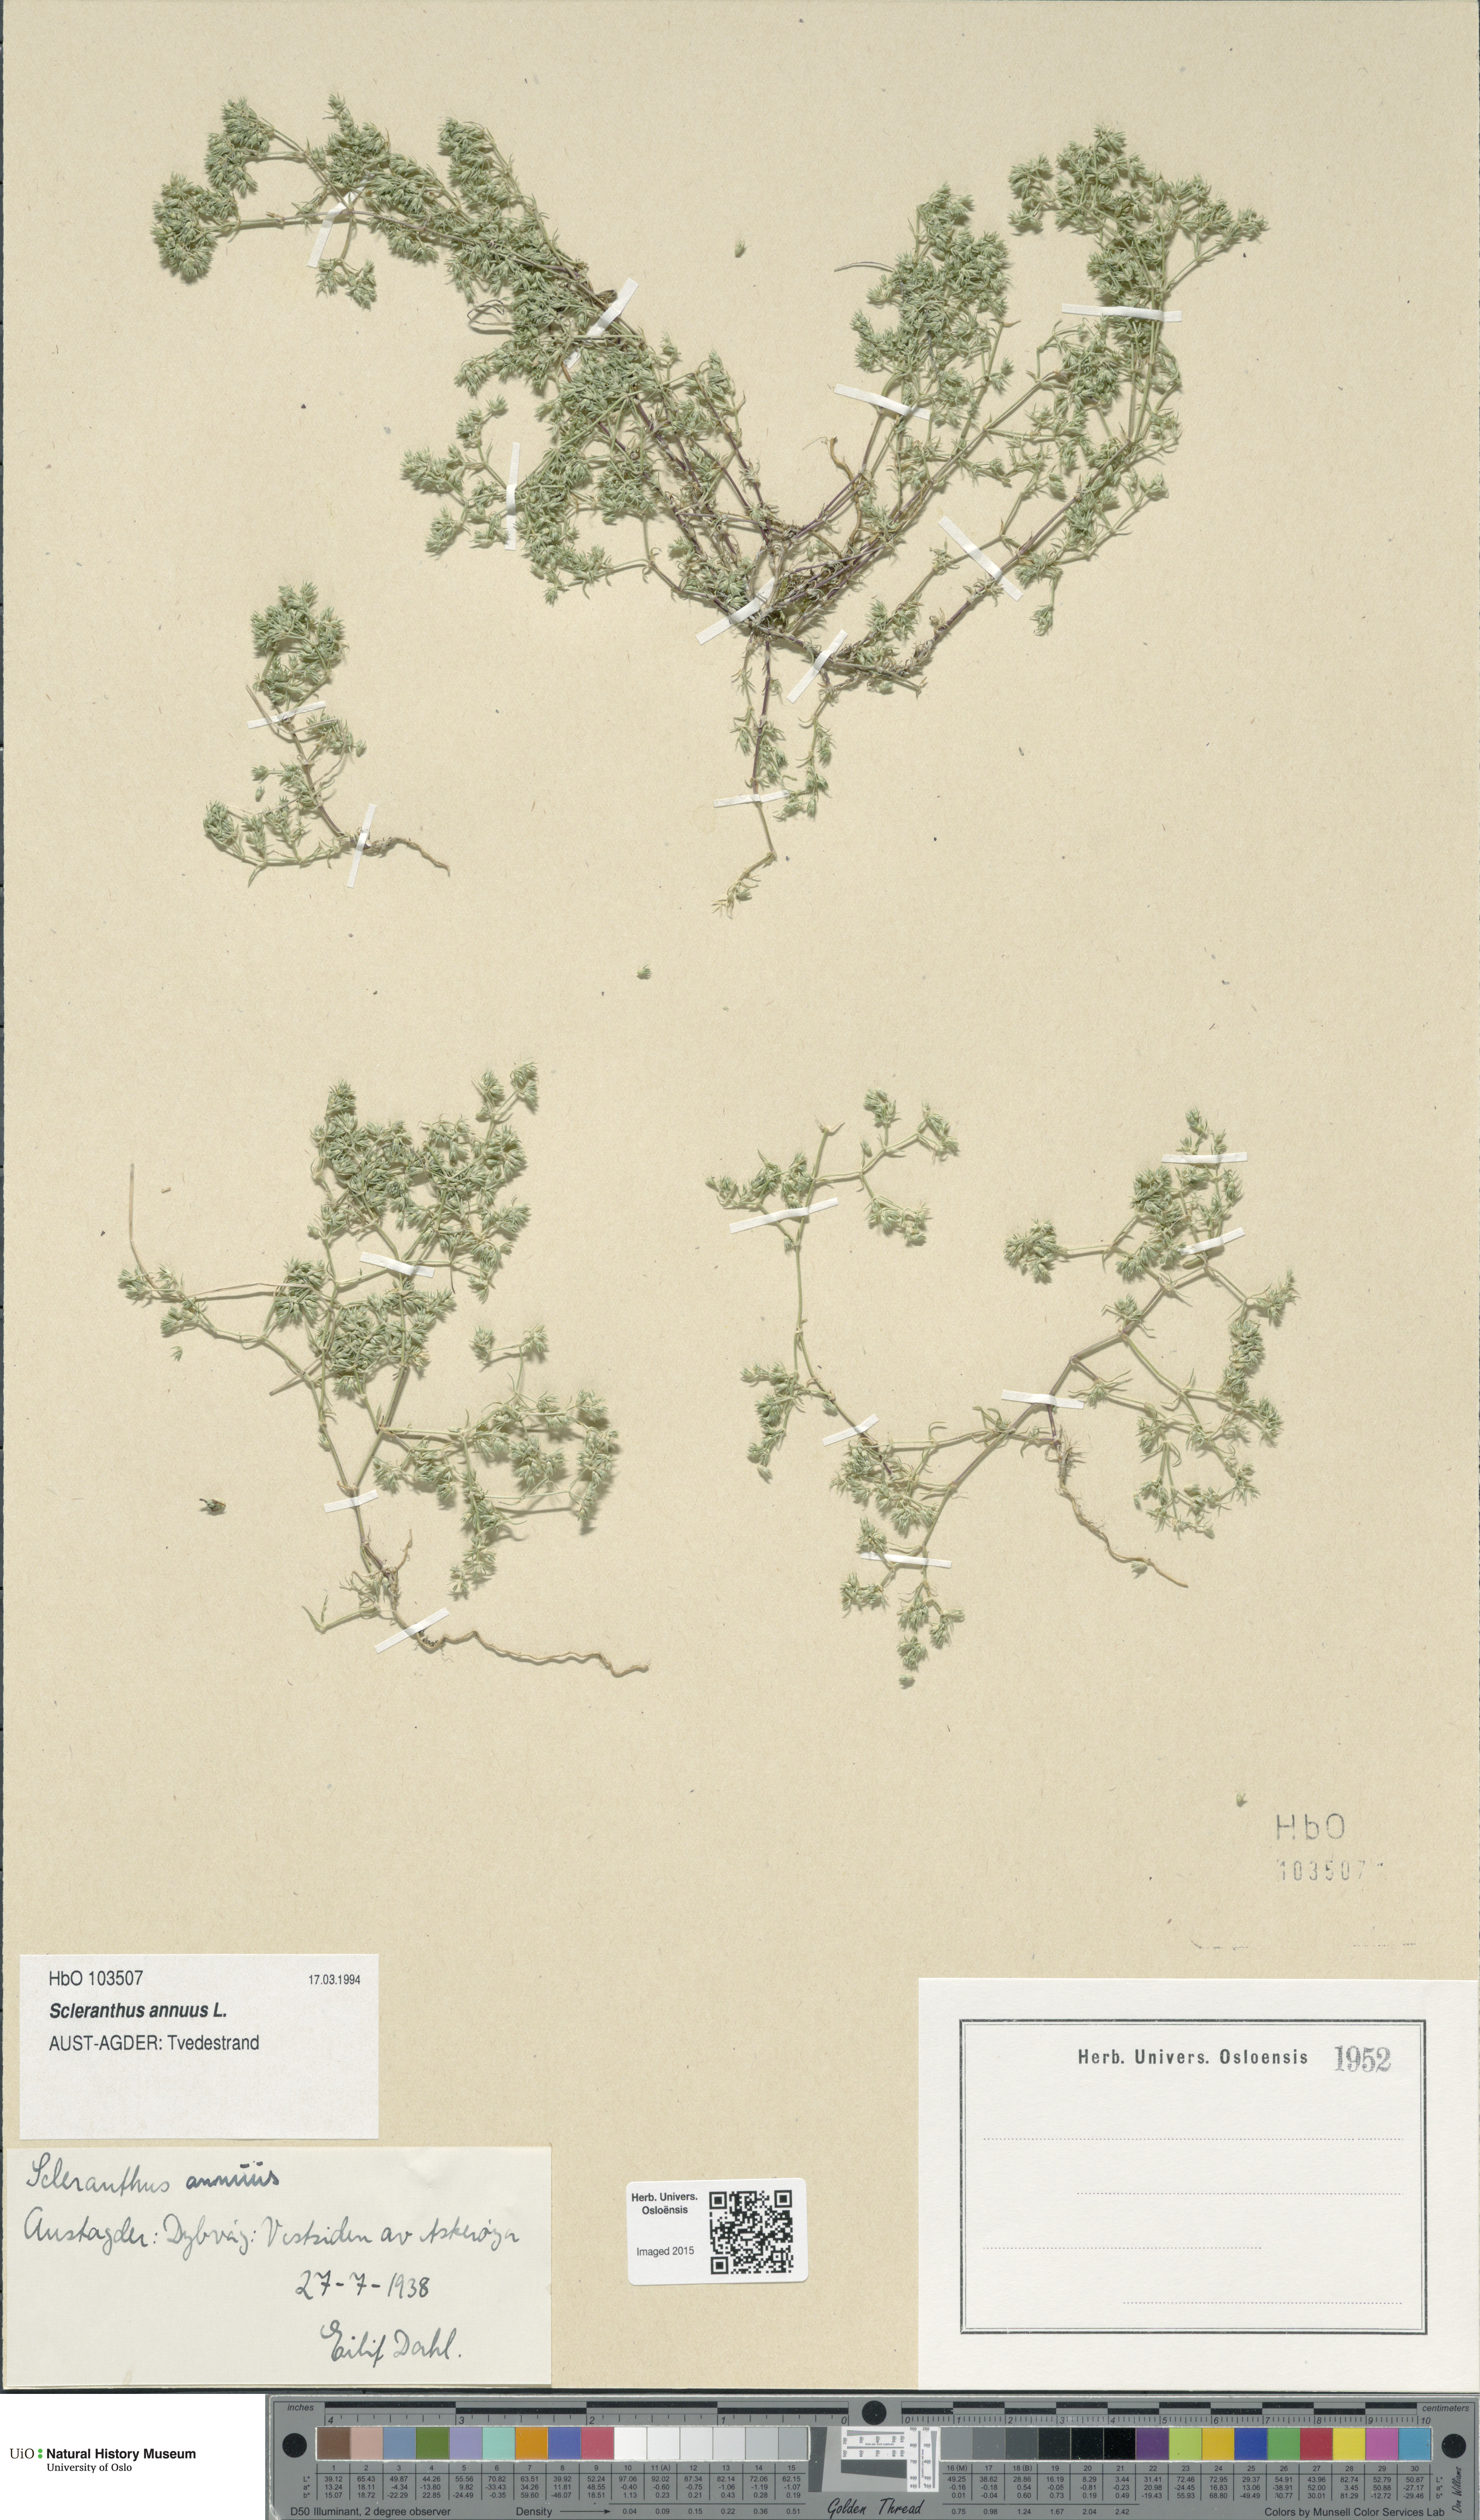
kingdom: Plantae
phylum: Tracheophyta
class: Magnoliopsida
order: Caryophyllales
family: Caryophyllaceae
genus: Scleranthus
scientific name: Scleranthus annuus
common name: Annual knawel
